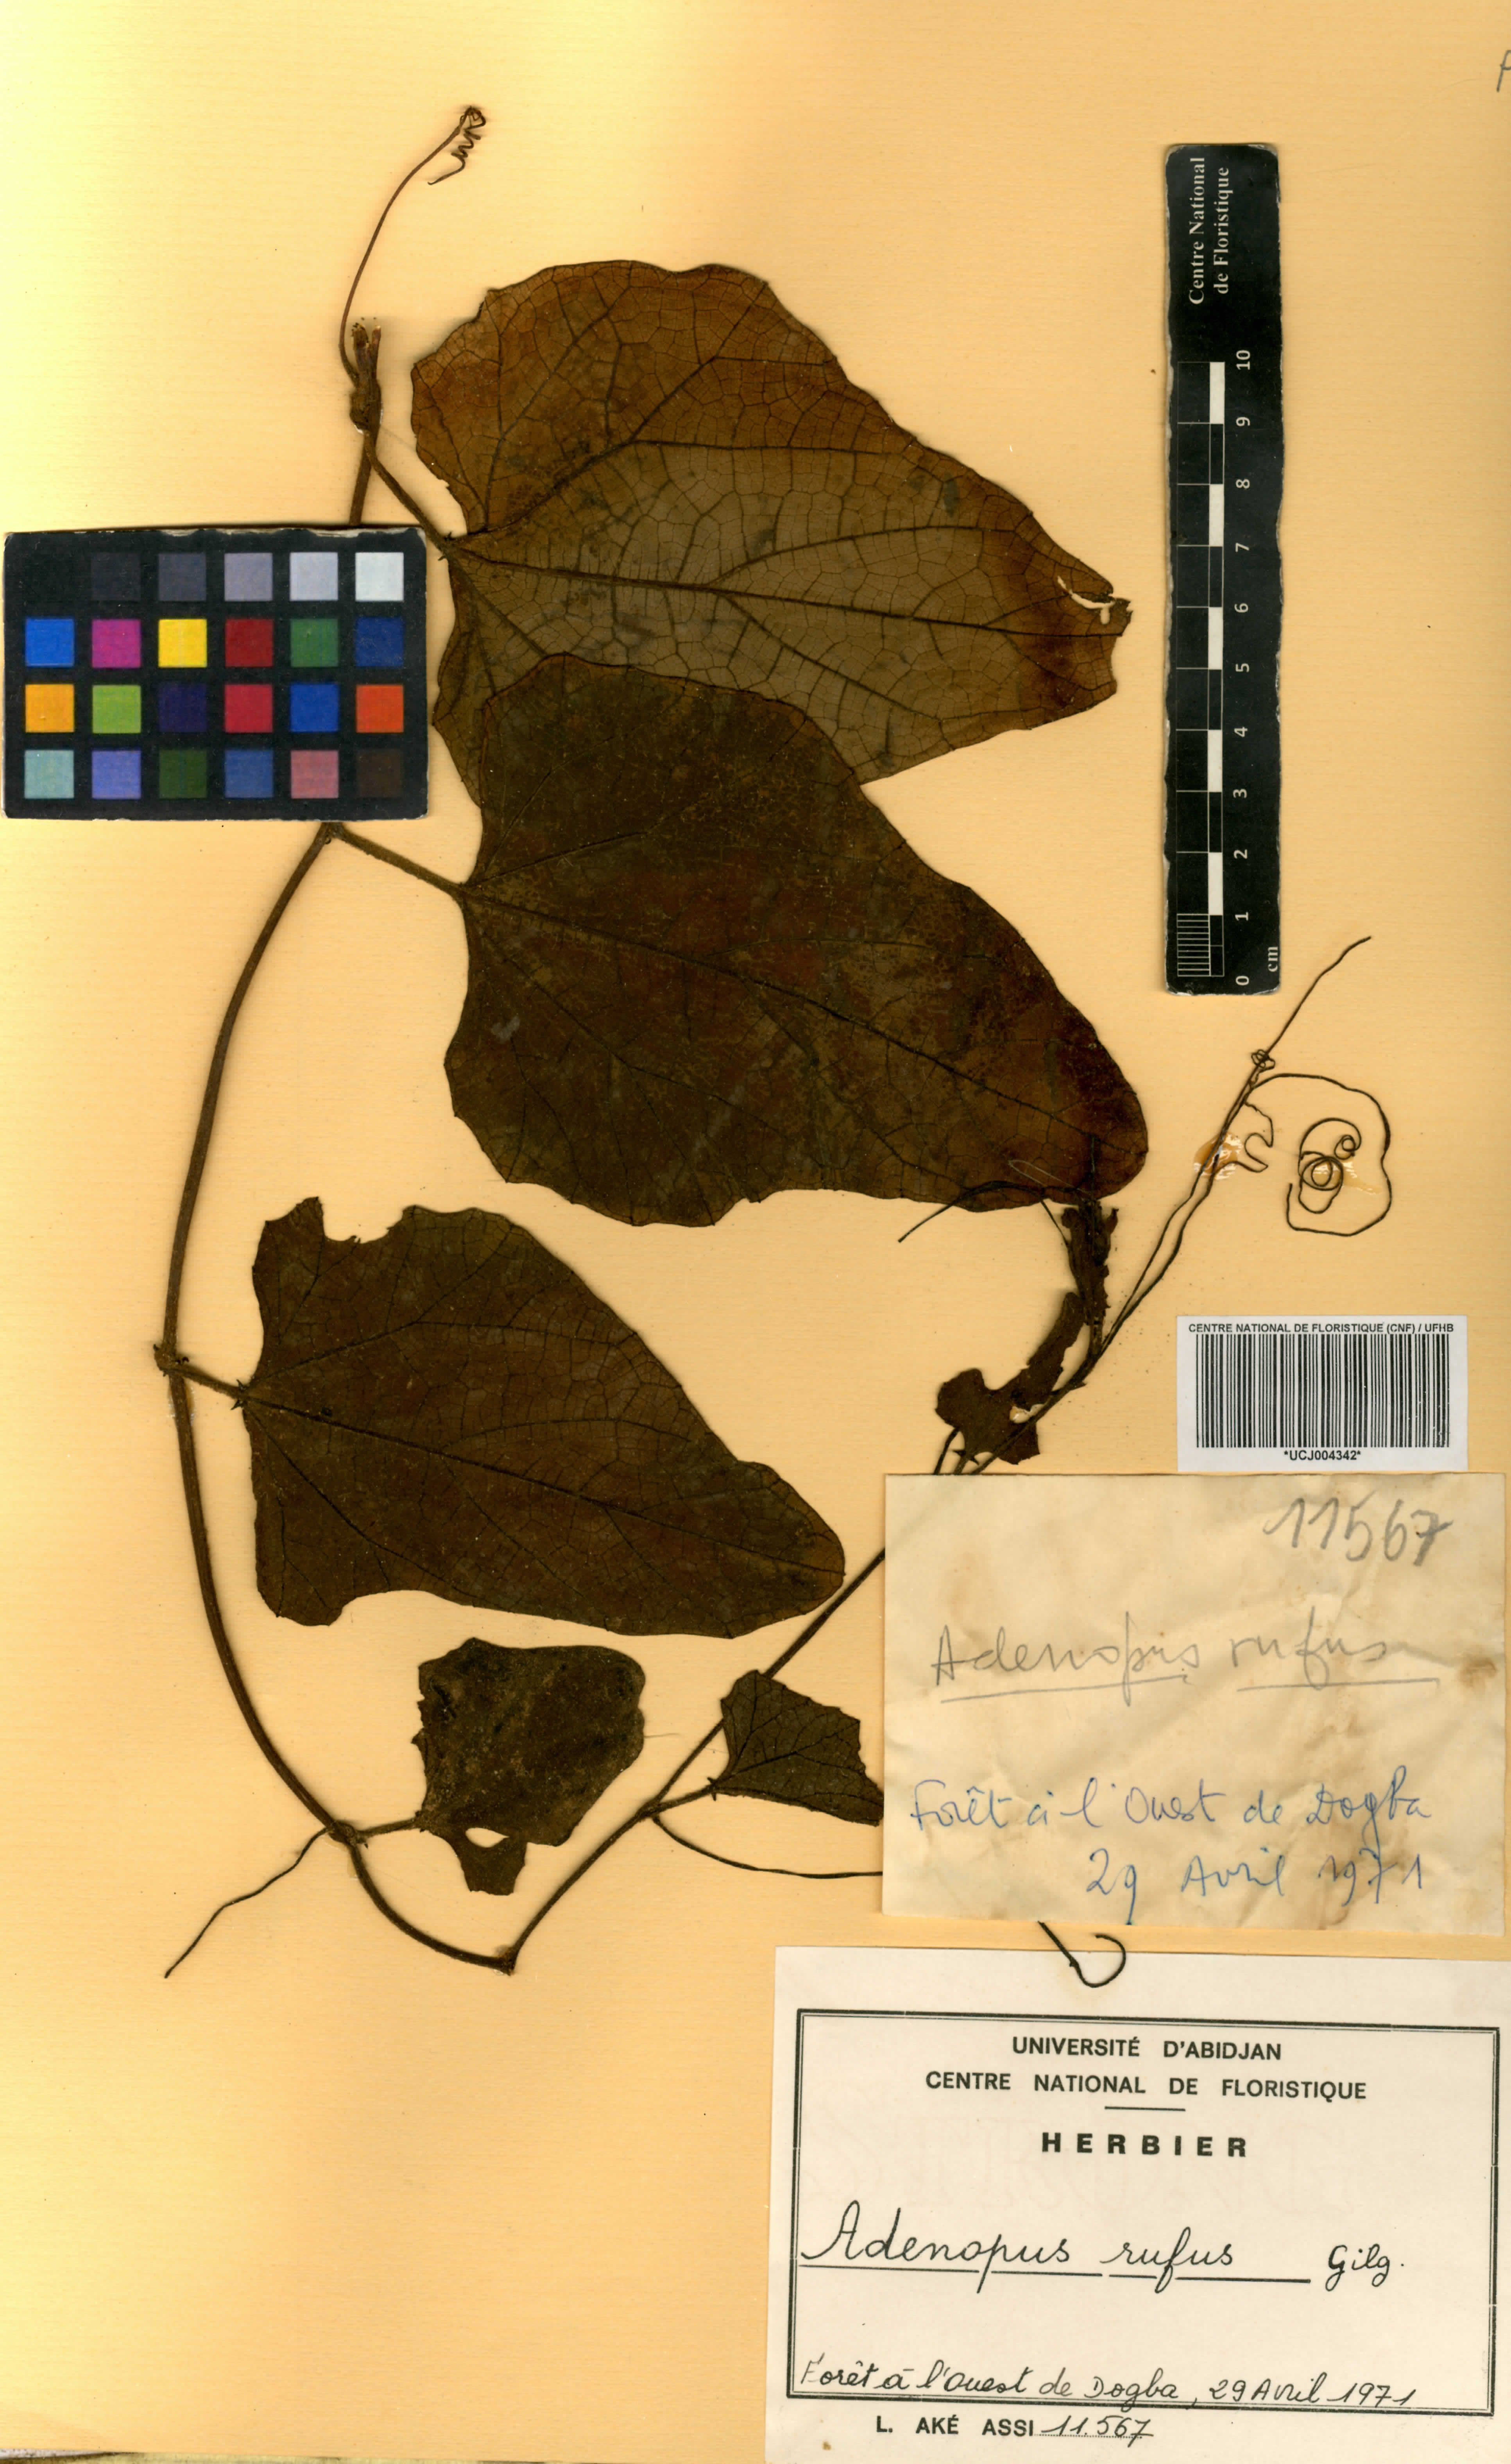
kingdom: Plantae
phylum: Tracheophyta
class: Magnoliopsida
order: Cucurbitales
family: Cucurbitaceae
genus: Lagenaria
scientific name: Lagenaria rufa
